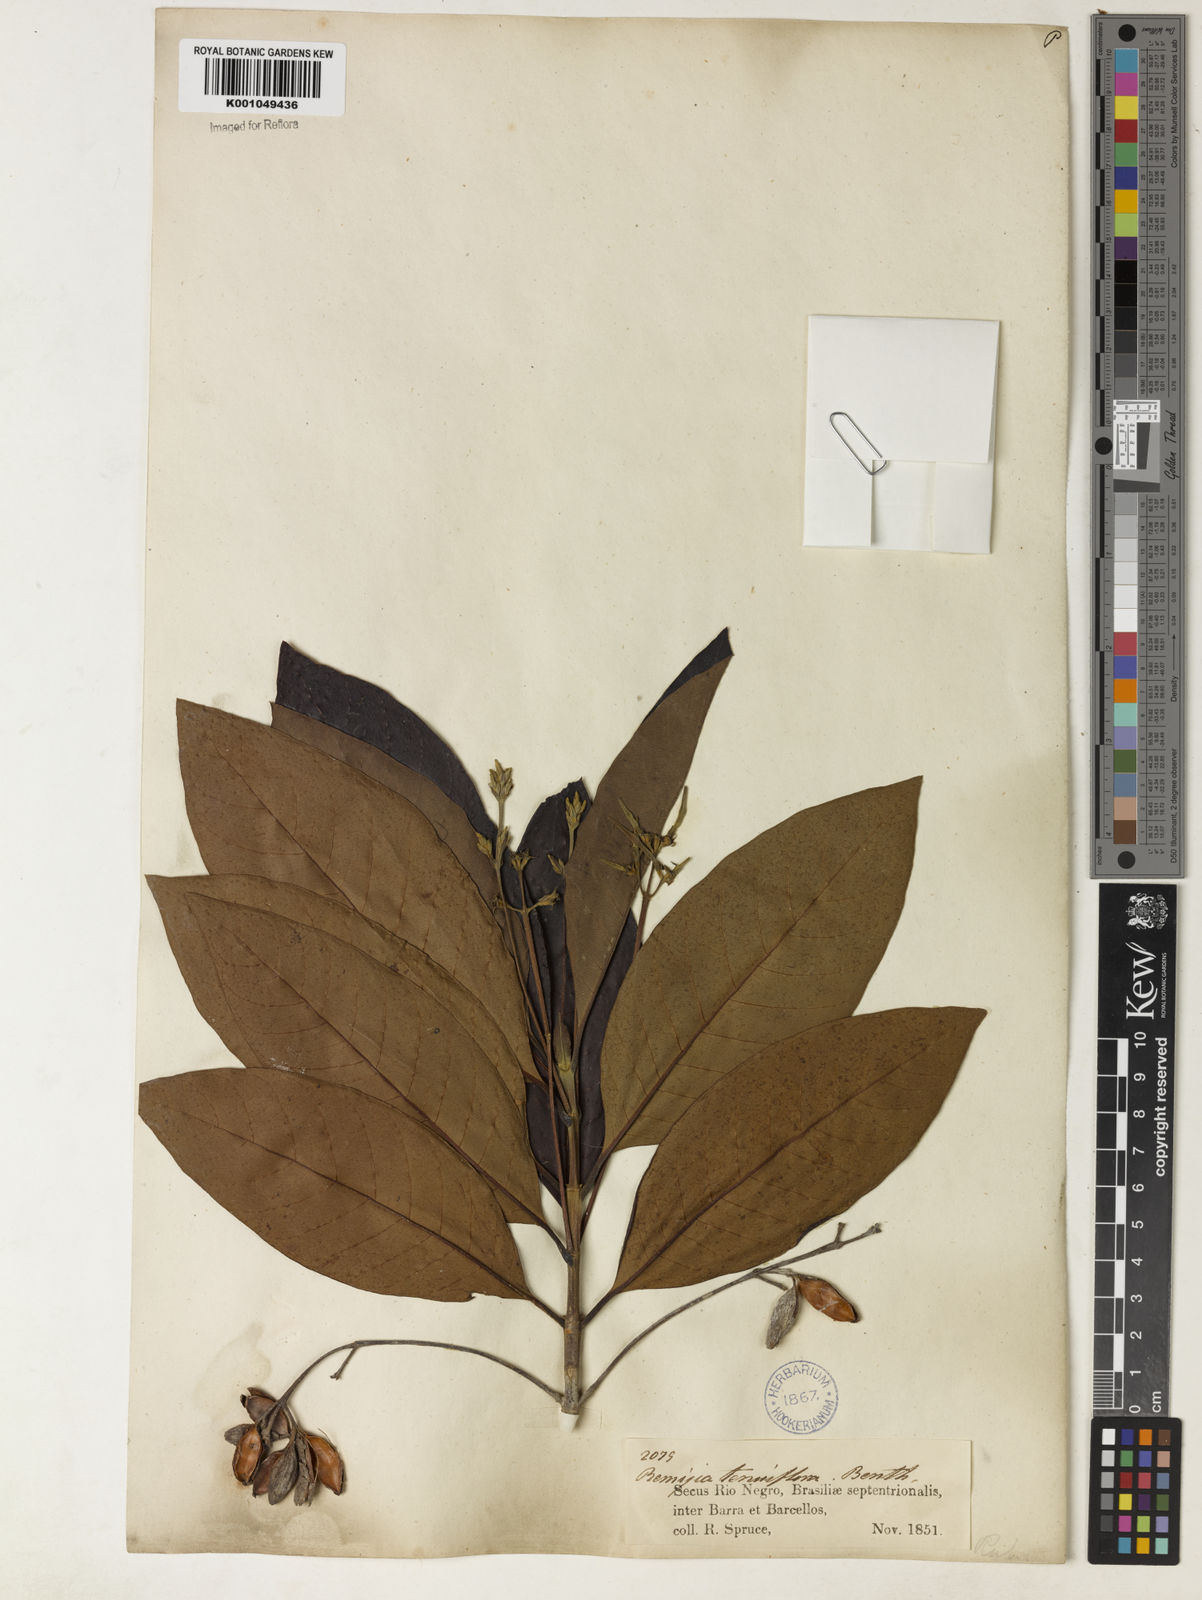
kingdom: Plantae
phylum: Tracheophyta
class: Magnoliopsida
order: Gentianales
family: Rubiaceae
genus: Remijia
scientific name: Remijia tenuiflora
